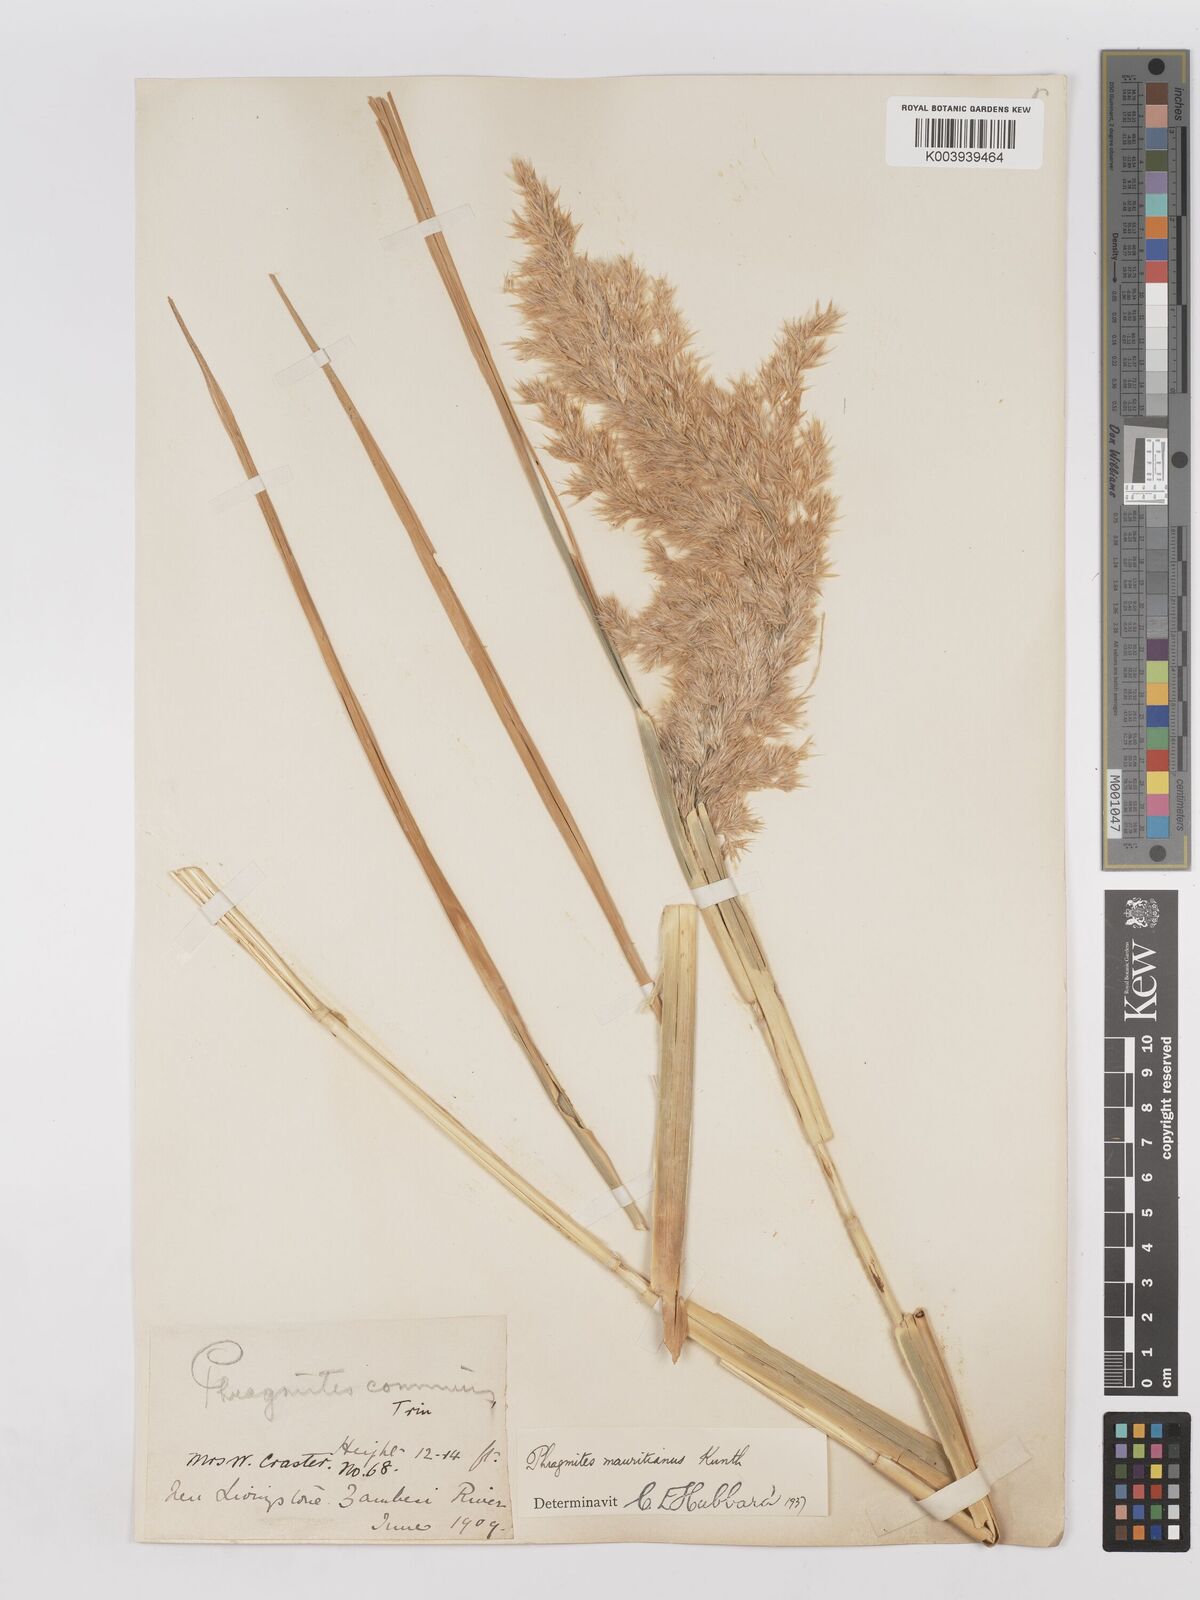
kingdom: Plantae
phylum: Tracheophyta
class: Liliopsida
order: Poales
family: Poaceae
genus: Phragmites
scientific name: Phragmites mauritianus
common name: Reed grass
